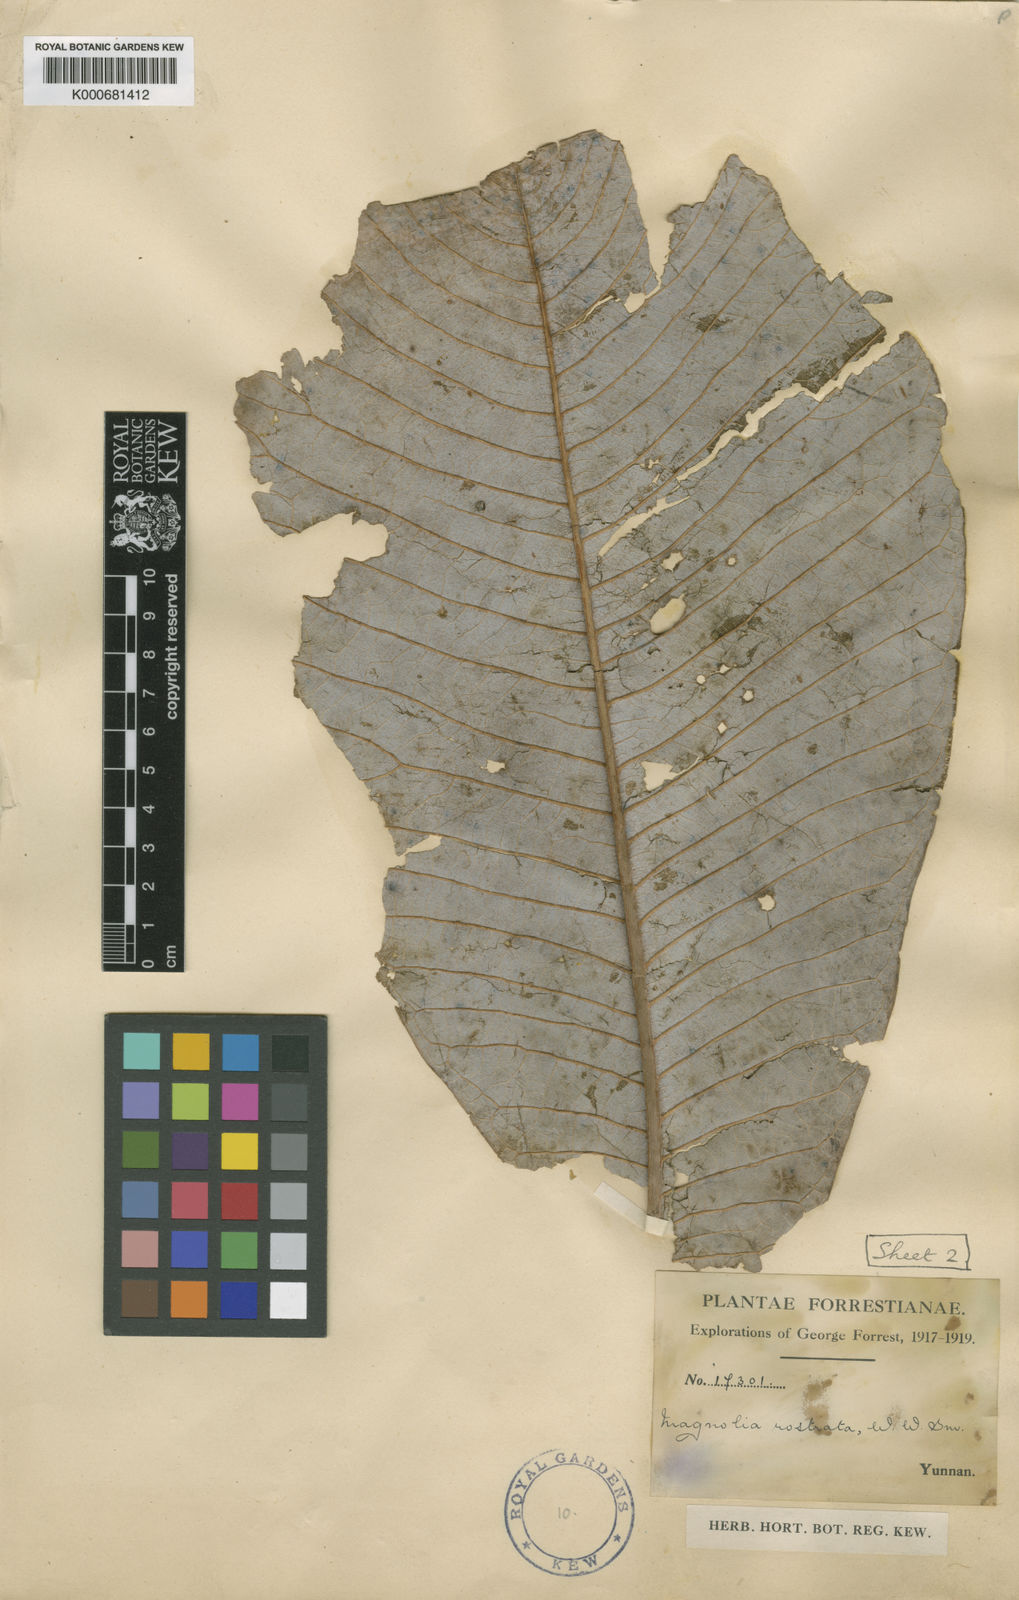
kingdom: Plantae
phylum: Tracheophyta
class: Magnoliopsida
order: Magnoliales
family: Magnoliaceae
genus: Magnolia
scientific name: Magnolia rostrata
